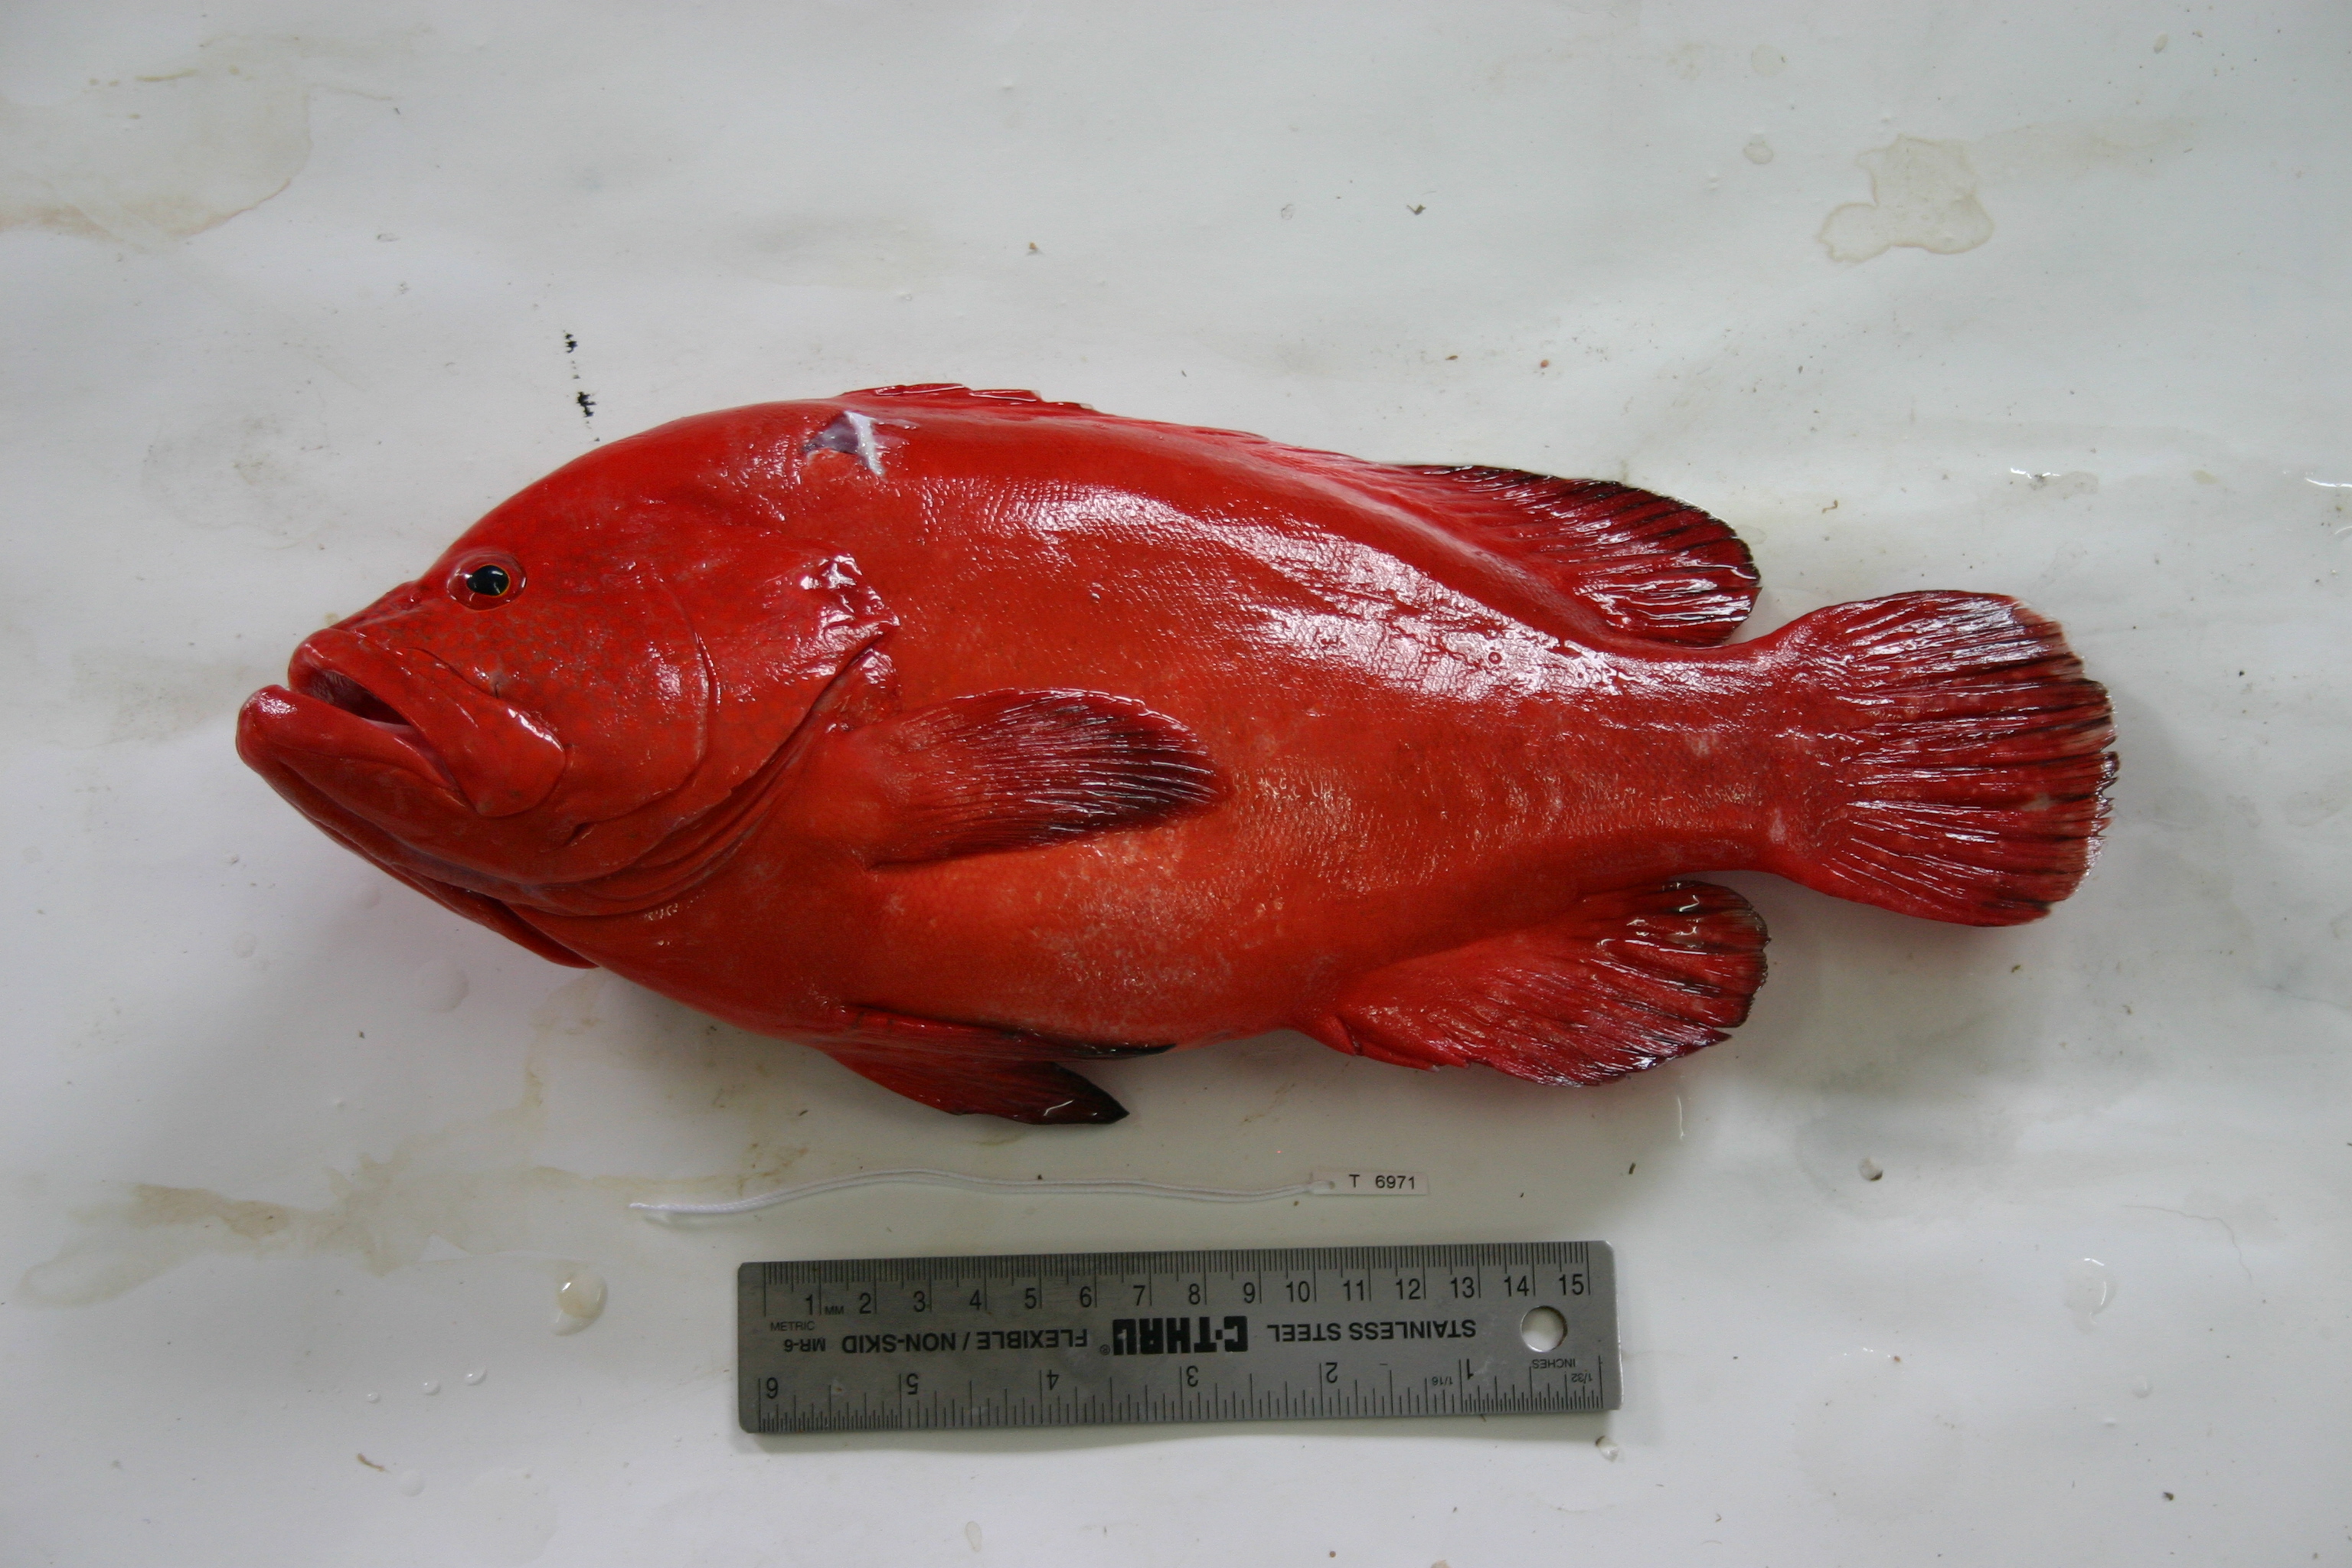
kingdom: Animalia
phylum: Chordata
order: Perciformes
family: Serranidae
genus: Cephalopholis
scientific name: Cephalopholis sonnerati
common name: Tomato hind
